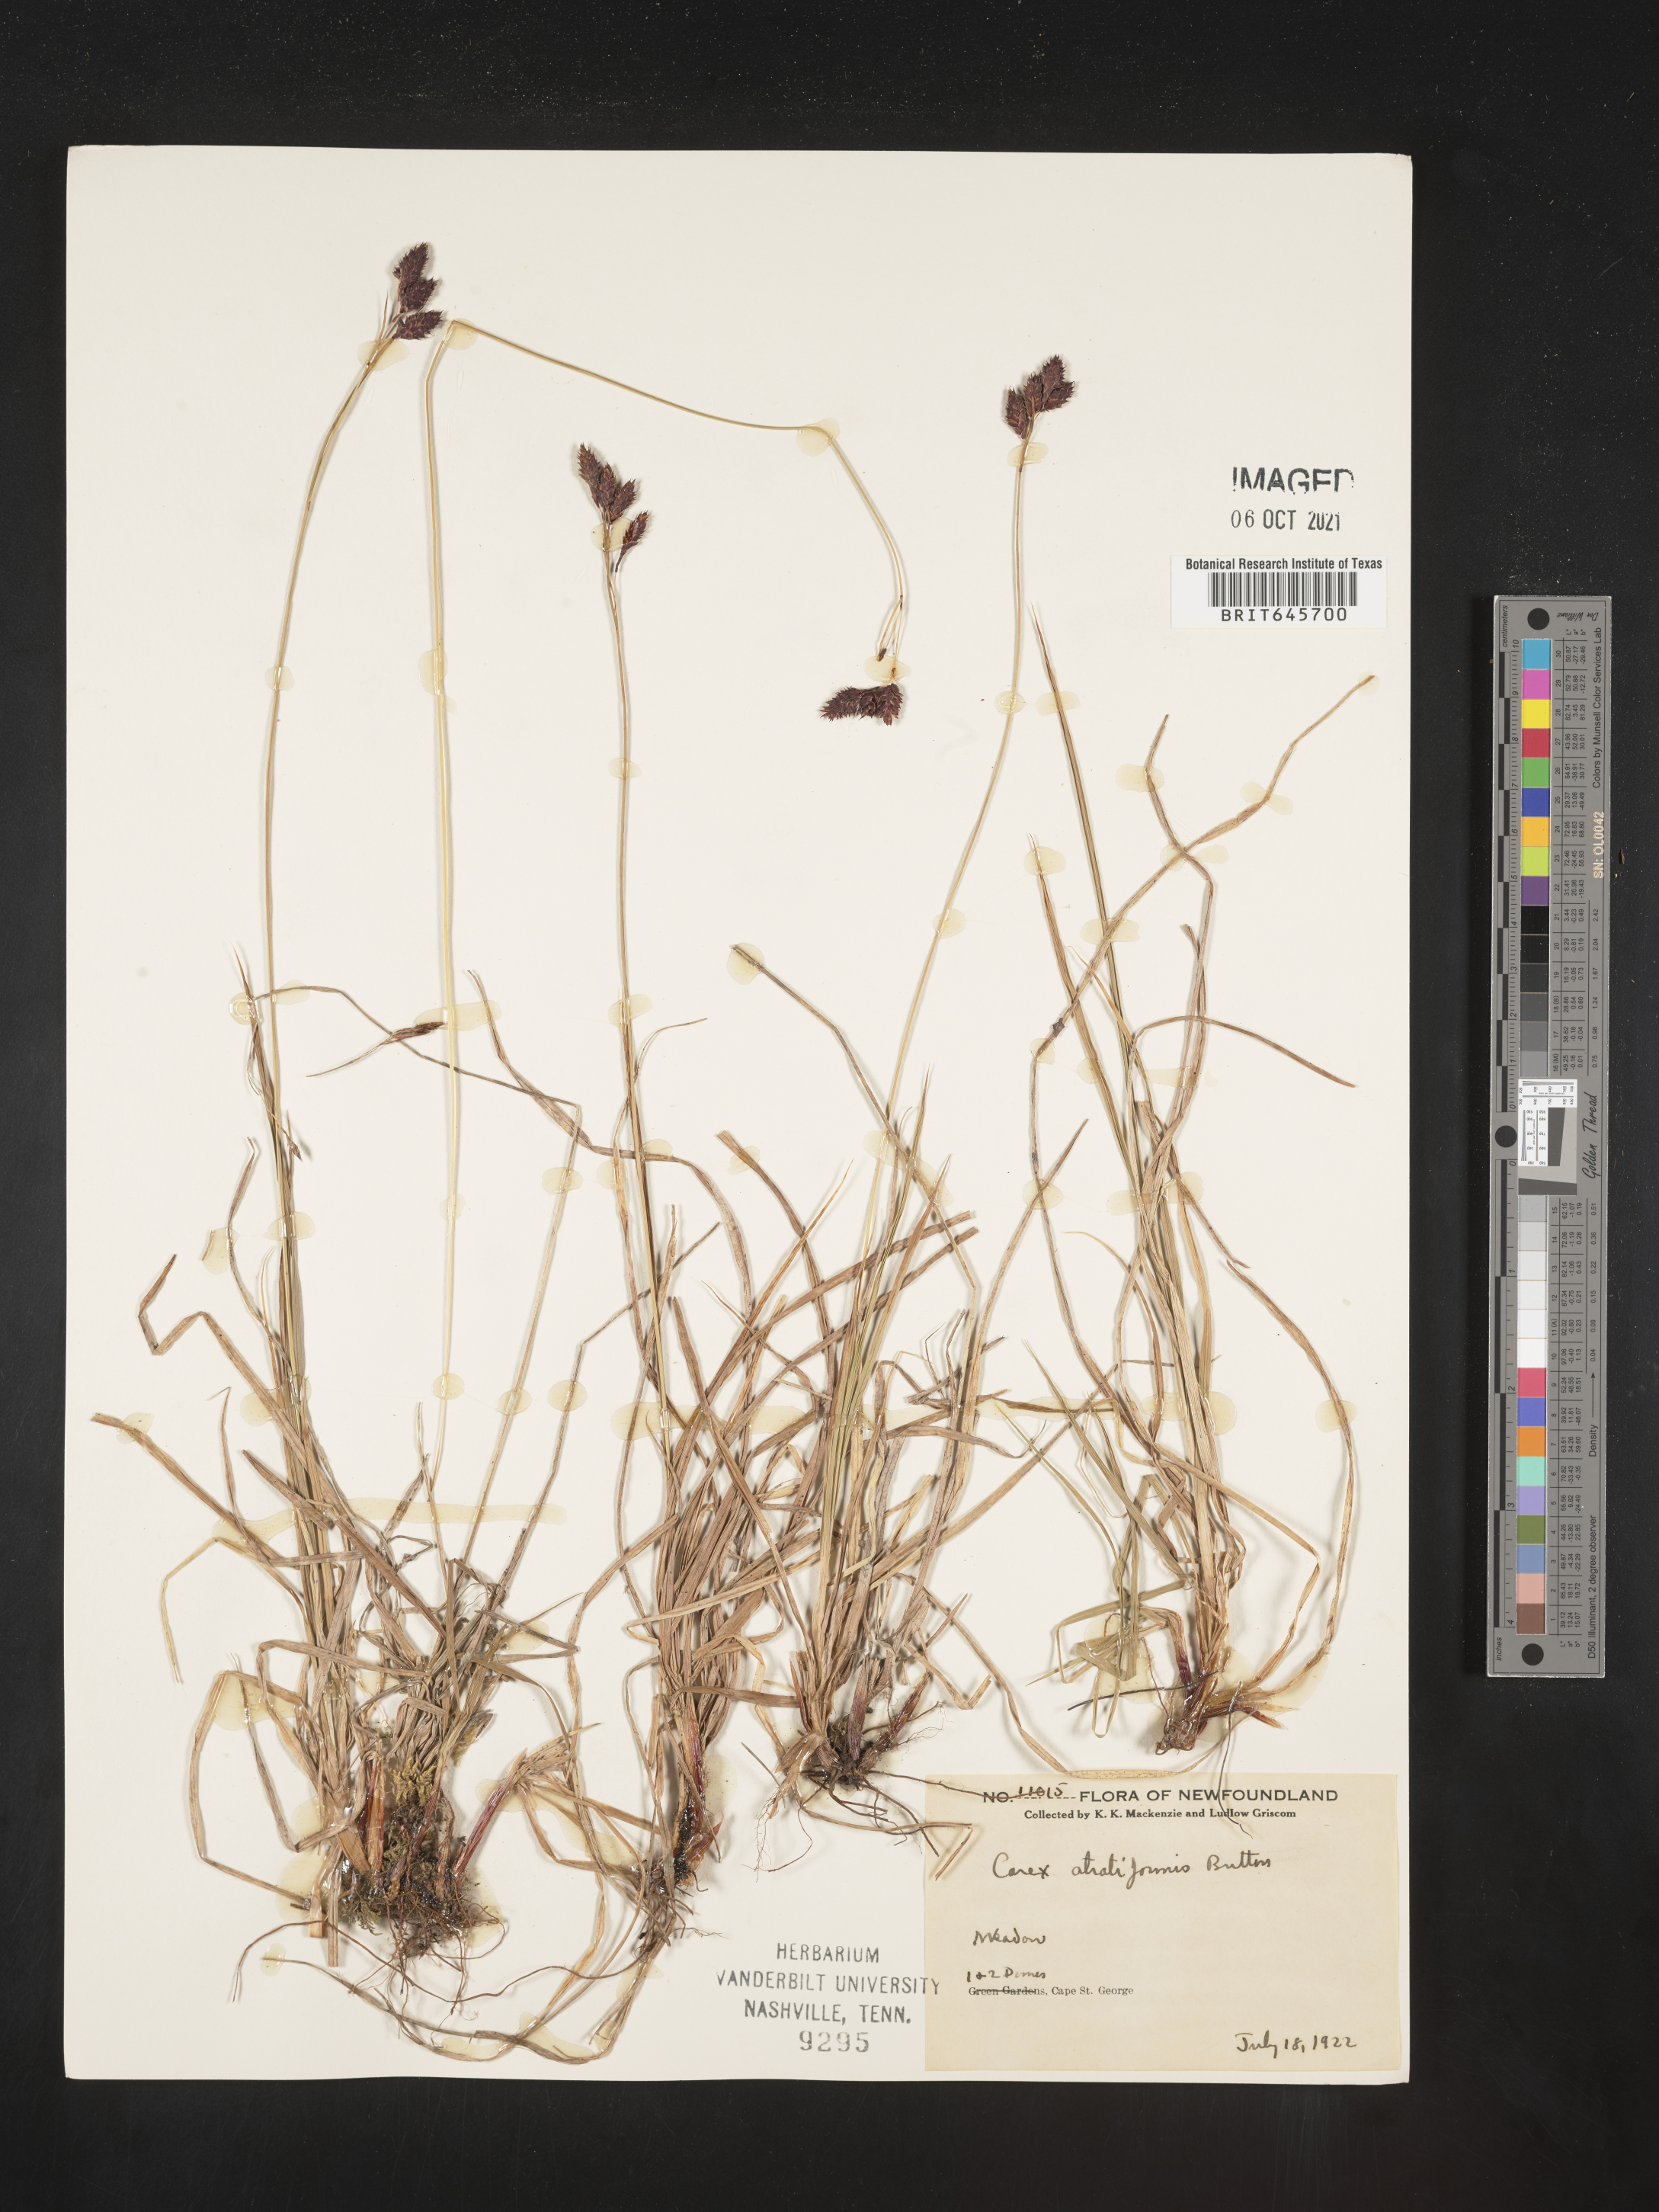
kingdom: Plantae
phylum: Tracheophyta
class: Liliopsida
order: Poales
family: Cyperaceae
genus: Carex
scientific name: Carex atratiformis
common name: Black sedge
